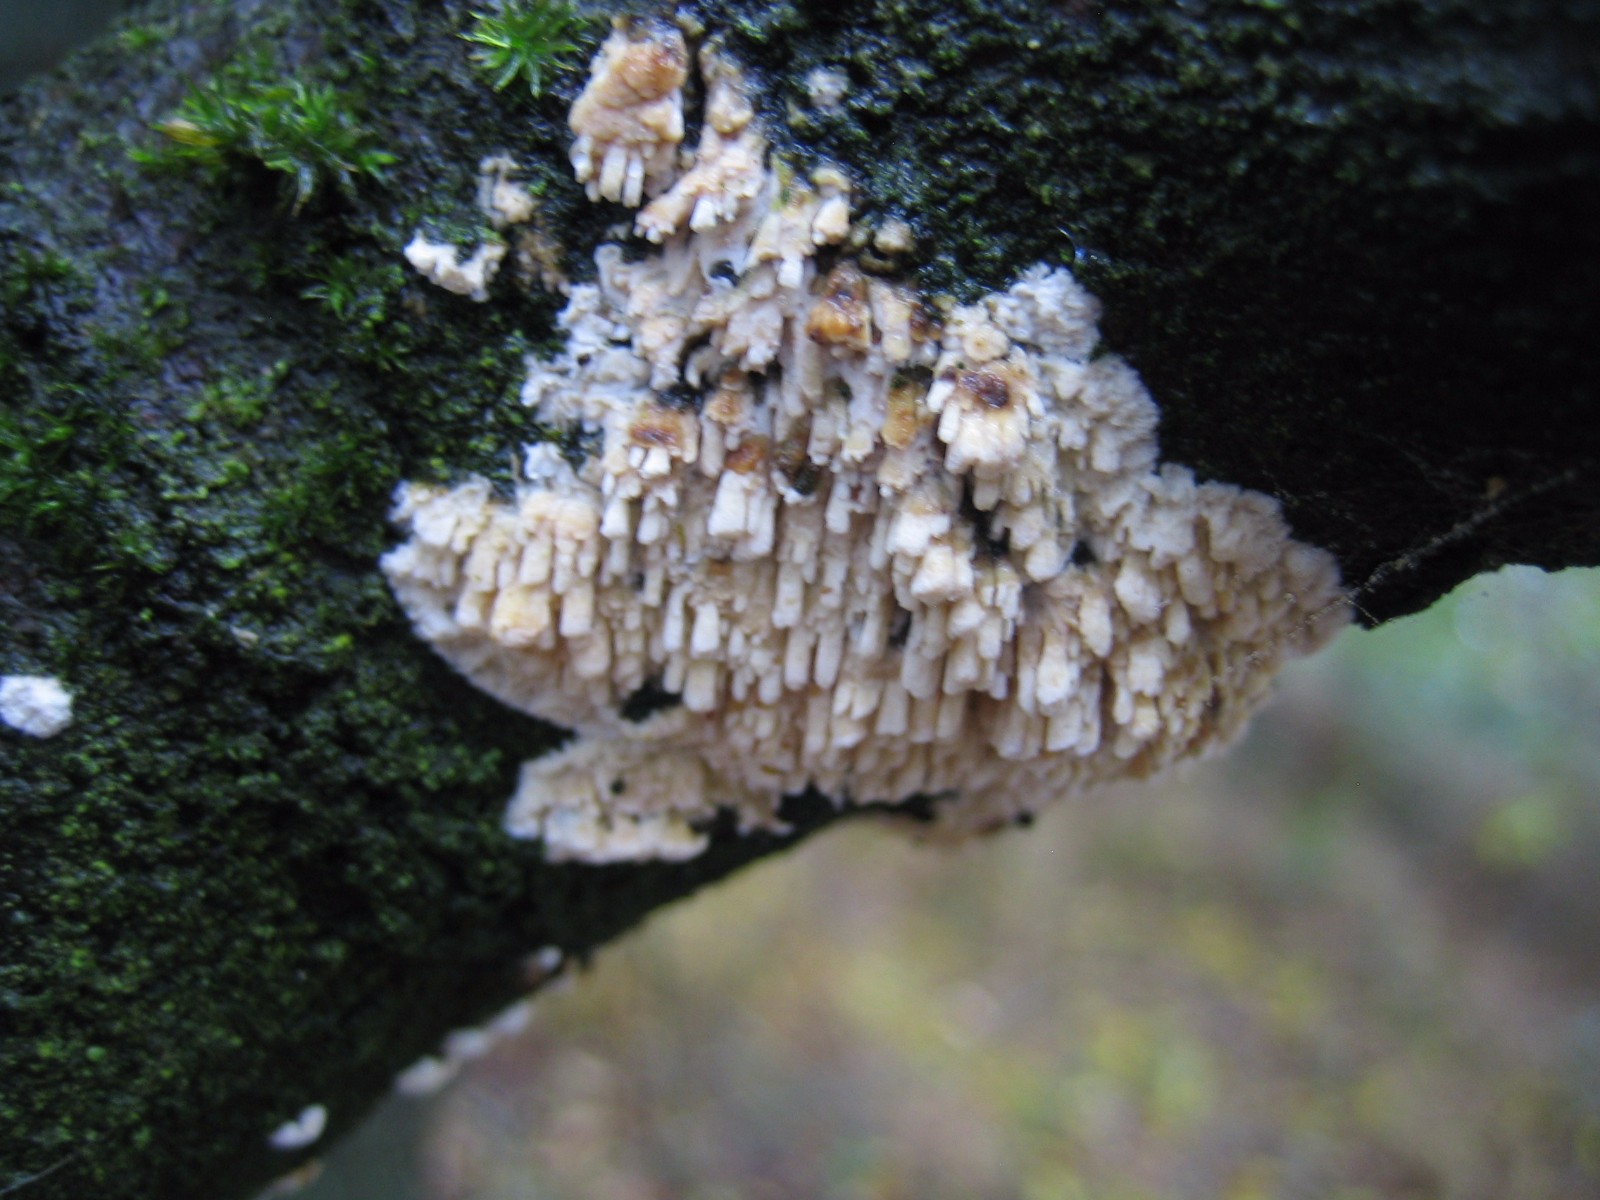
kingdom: Fungi
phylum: Basidiomycota
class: Agaricomycetes
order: Hymenochaetales
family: Schizoporaceae
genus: Xylodon
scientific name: Xylodon radula
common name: grovtandet kalkskind
